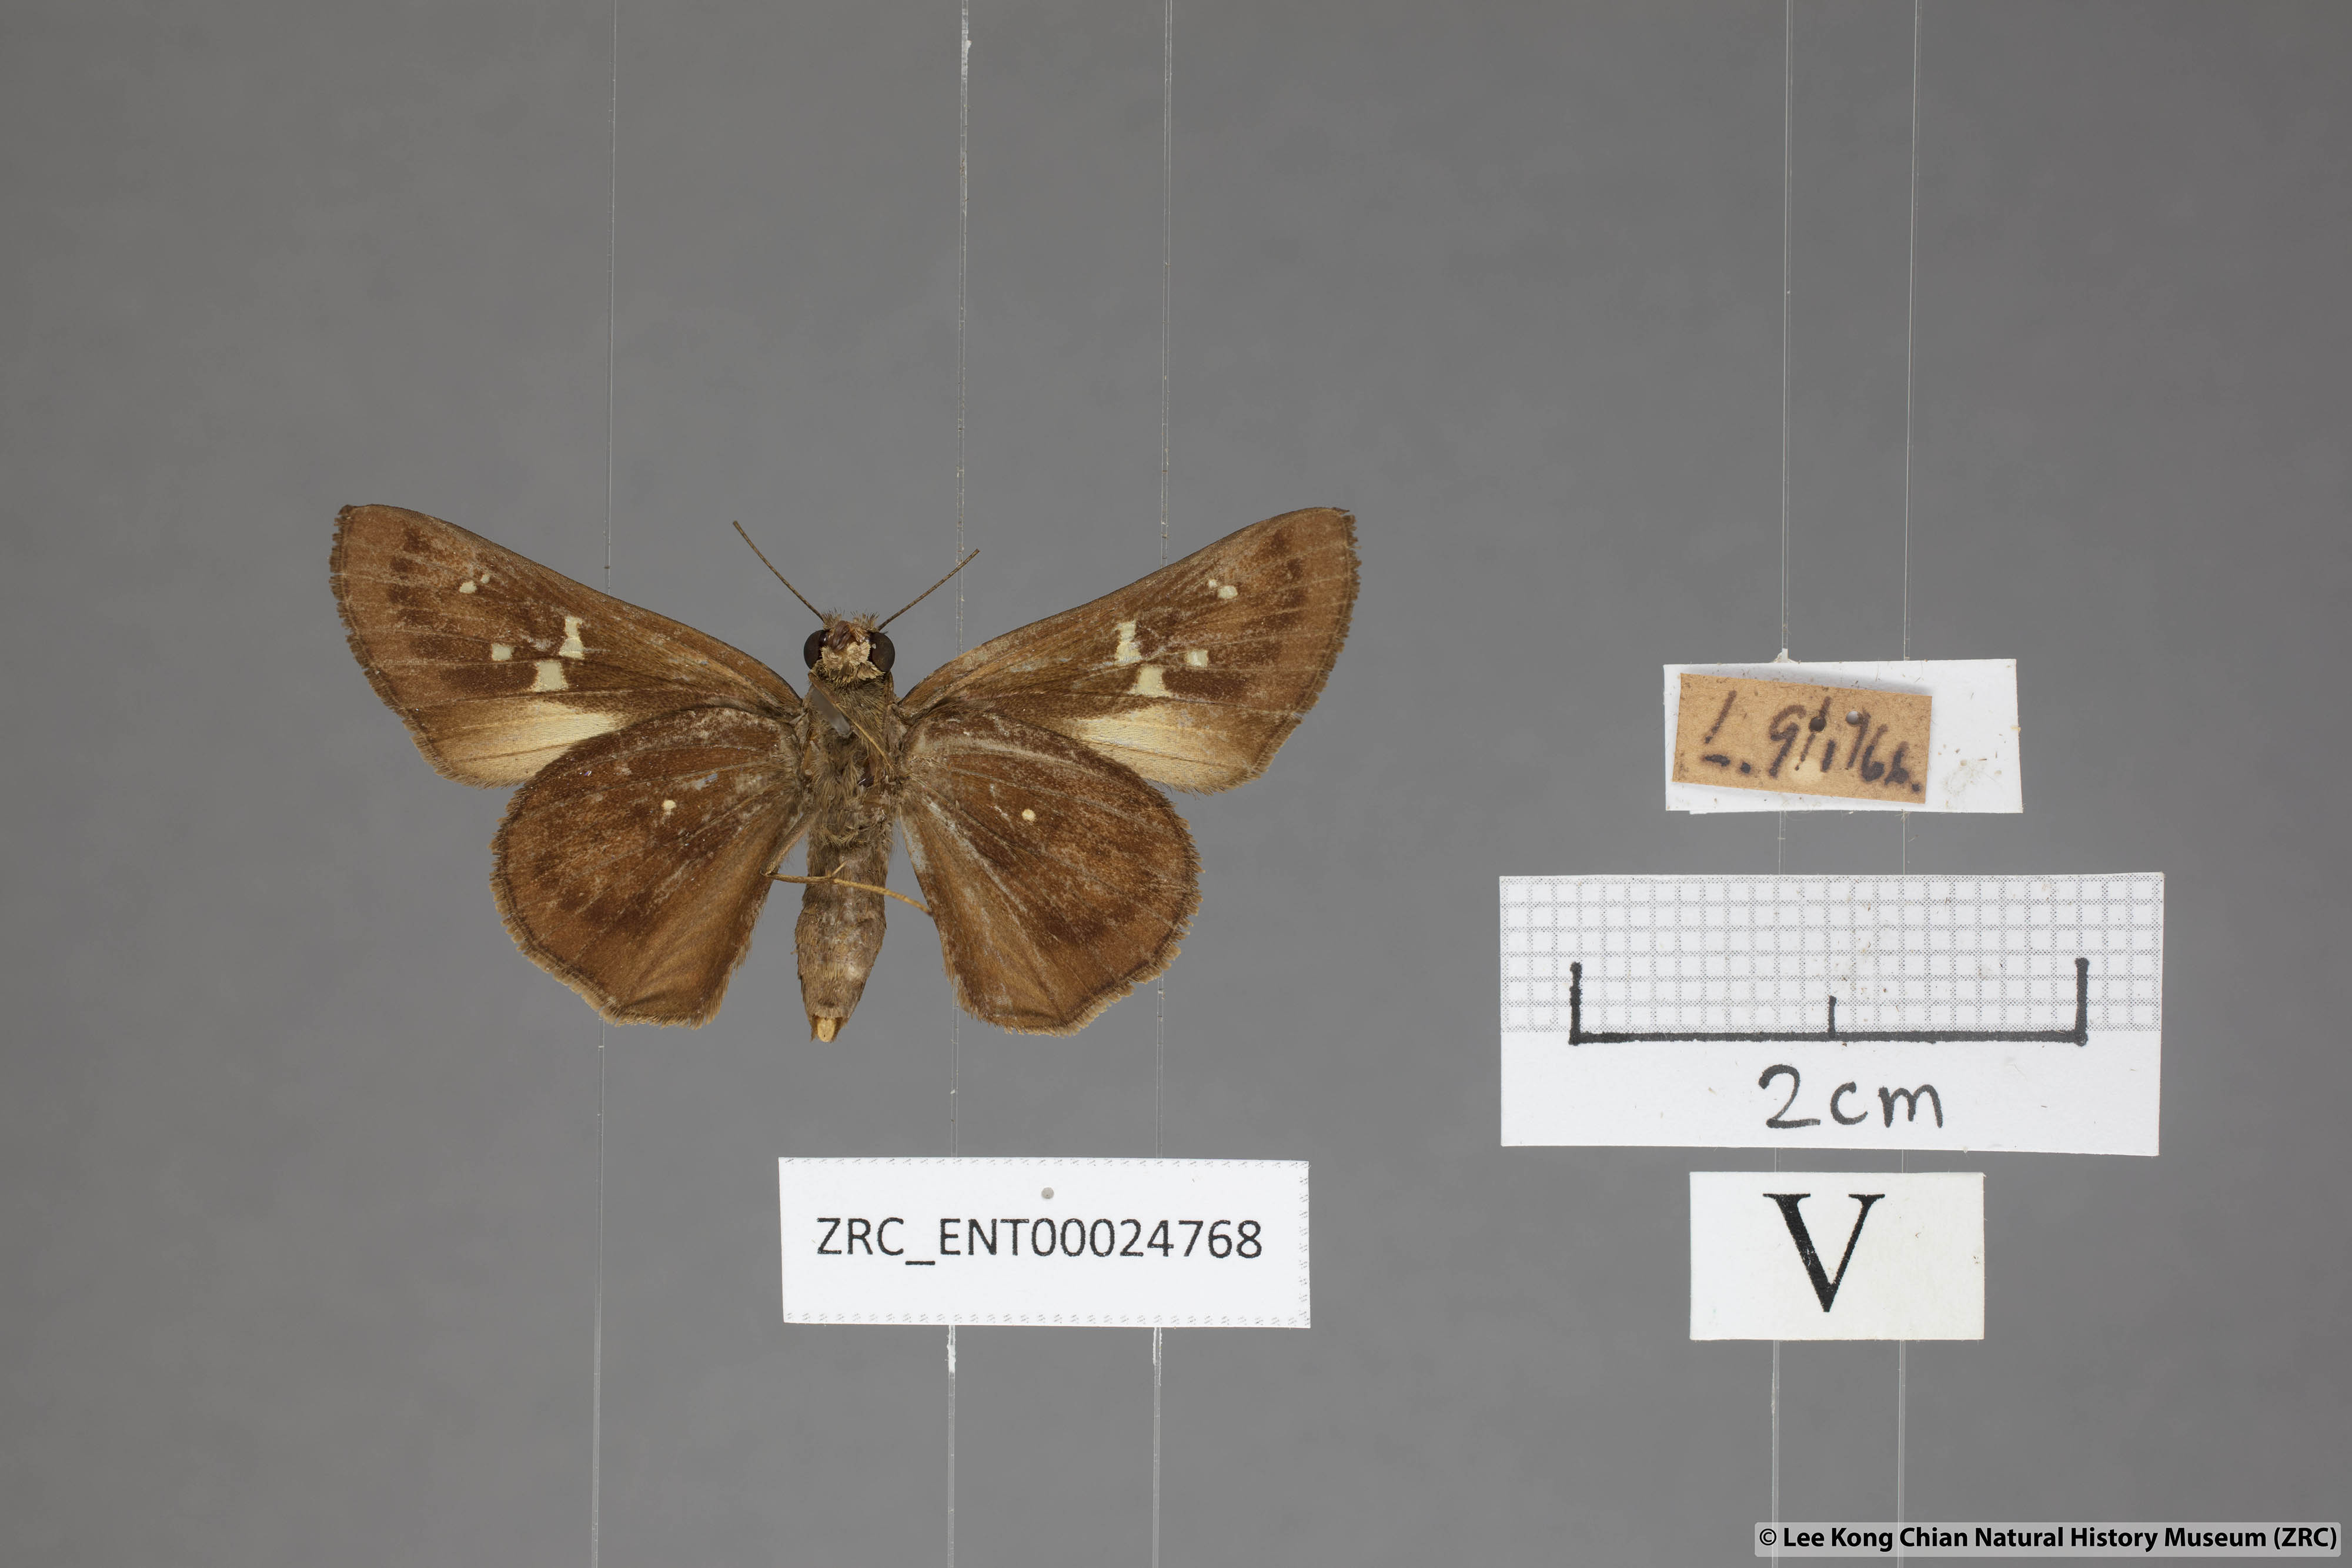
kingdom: Animalia
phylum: Arthropoda
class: Insecta
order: Lepidoptera
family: Hesperiidae
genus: Hyarotis
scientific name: Hyarotis microstictum
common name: Small brush flitter
